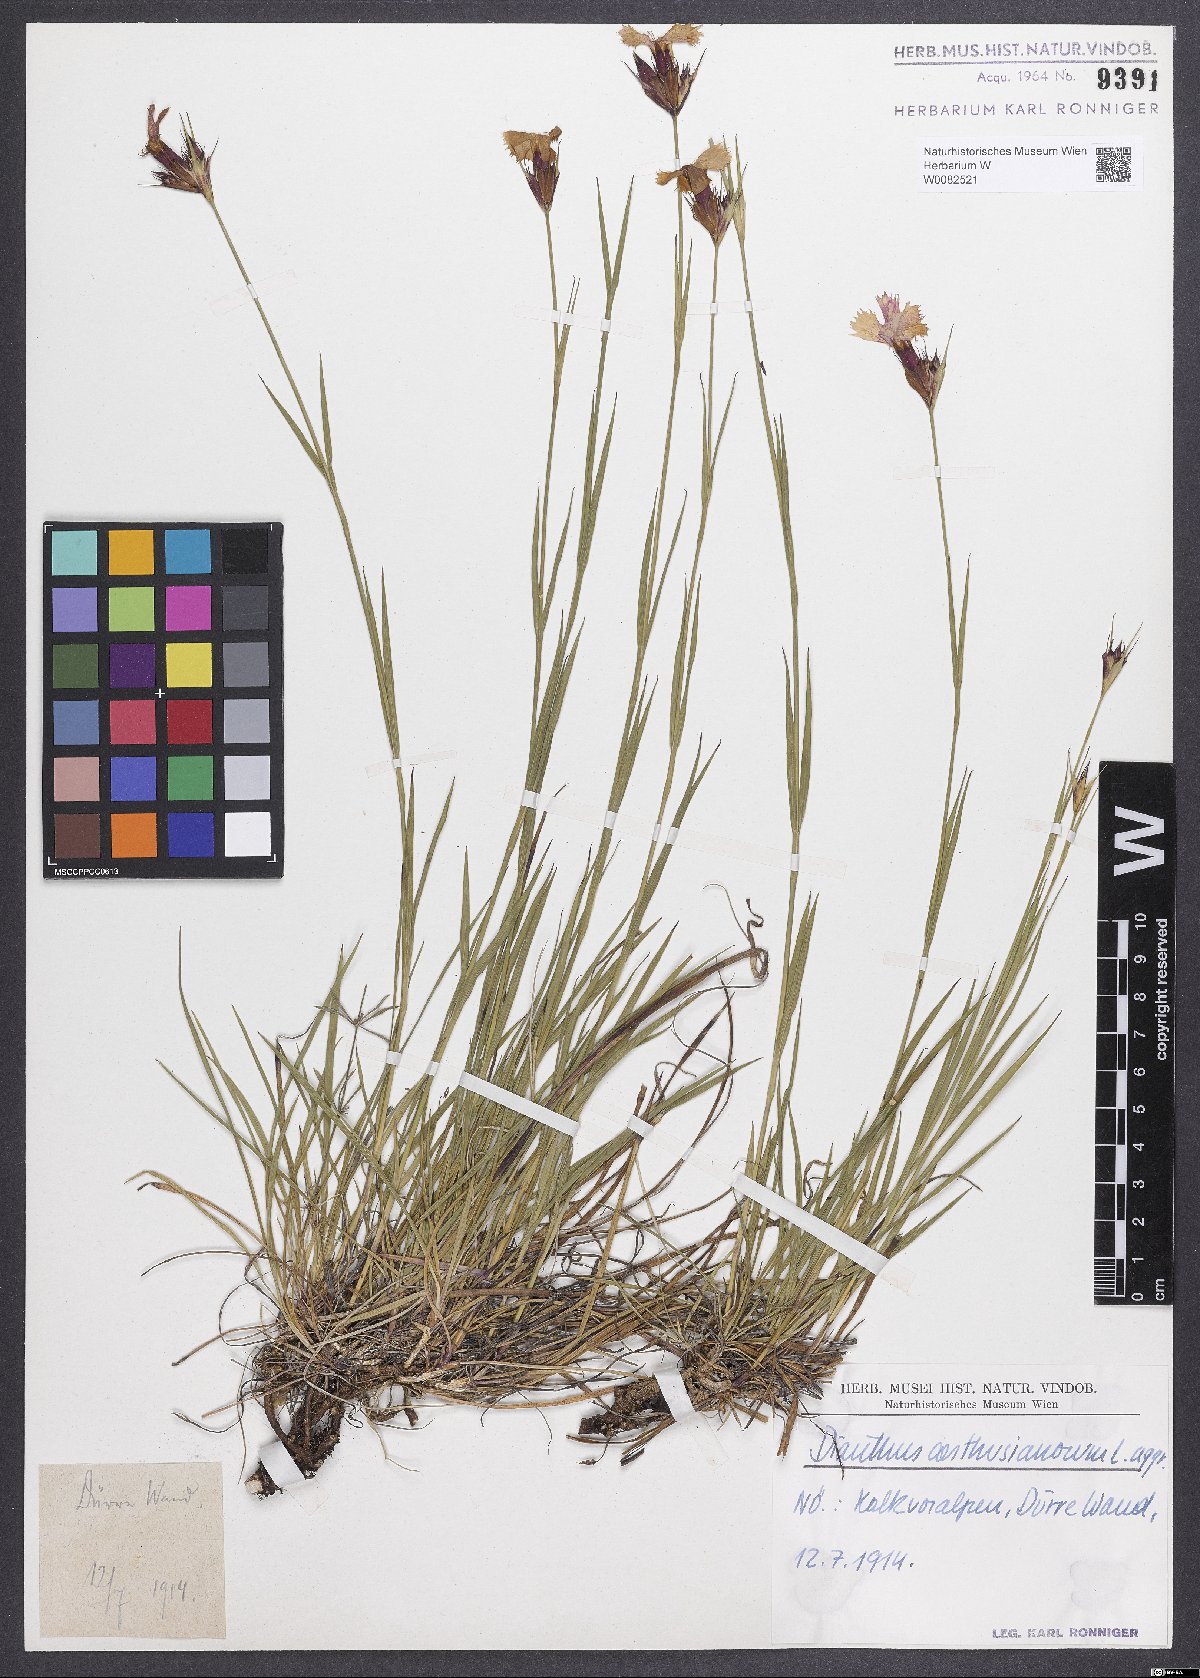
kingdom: Plantae
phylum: Tracheophyta
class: Magnoliopsida
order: Caryophyllales
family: Caryophyllaceae
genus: Dianthus
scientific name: Dianthus carthusianorum
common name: Carthusian pink
